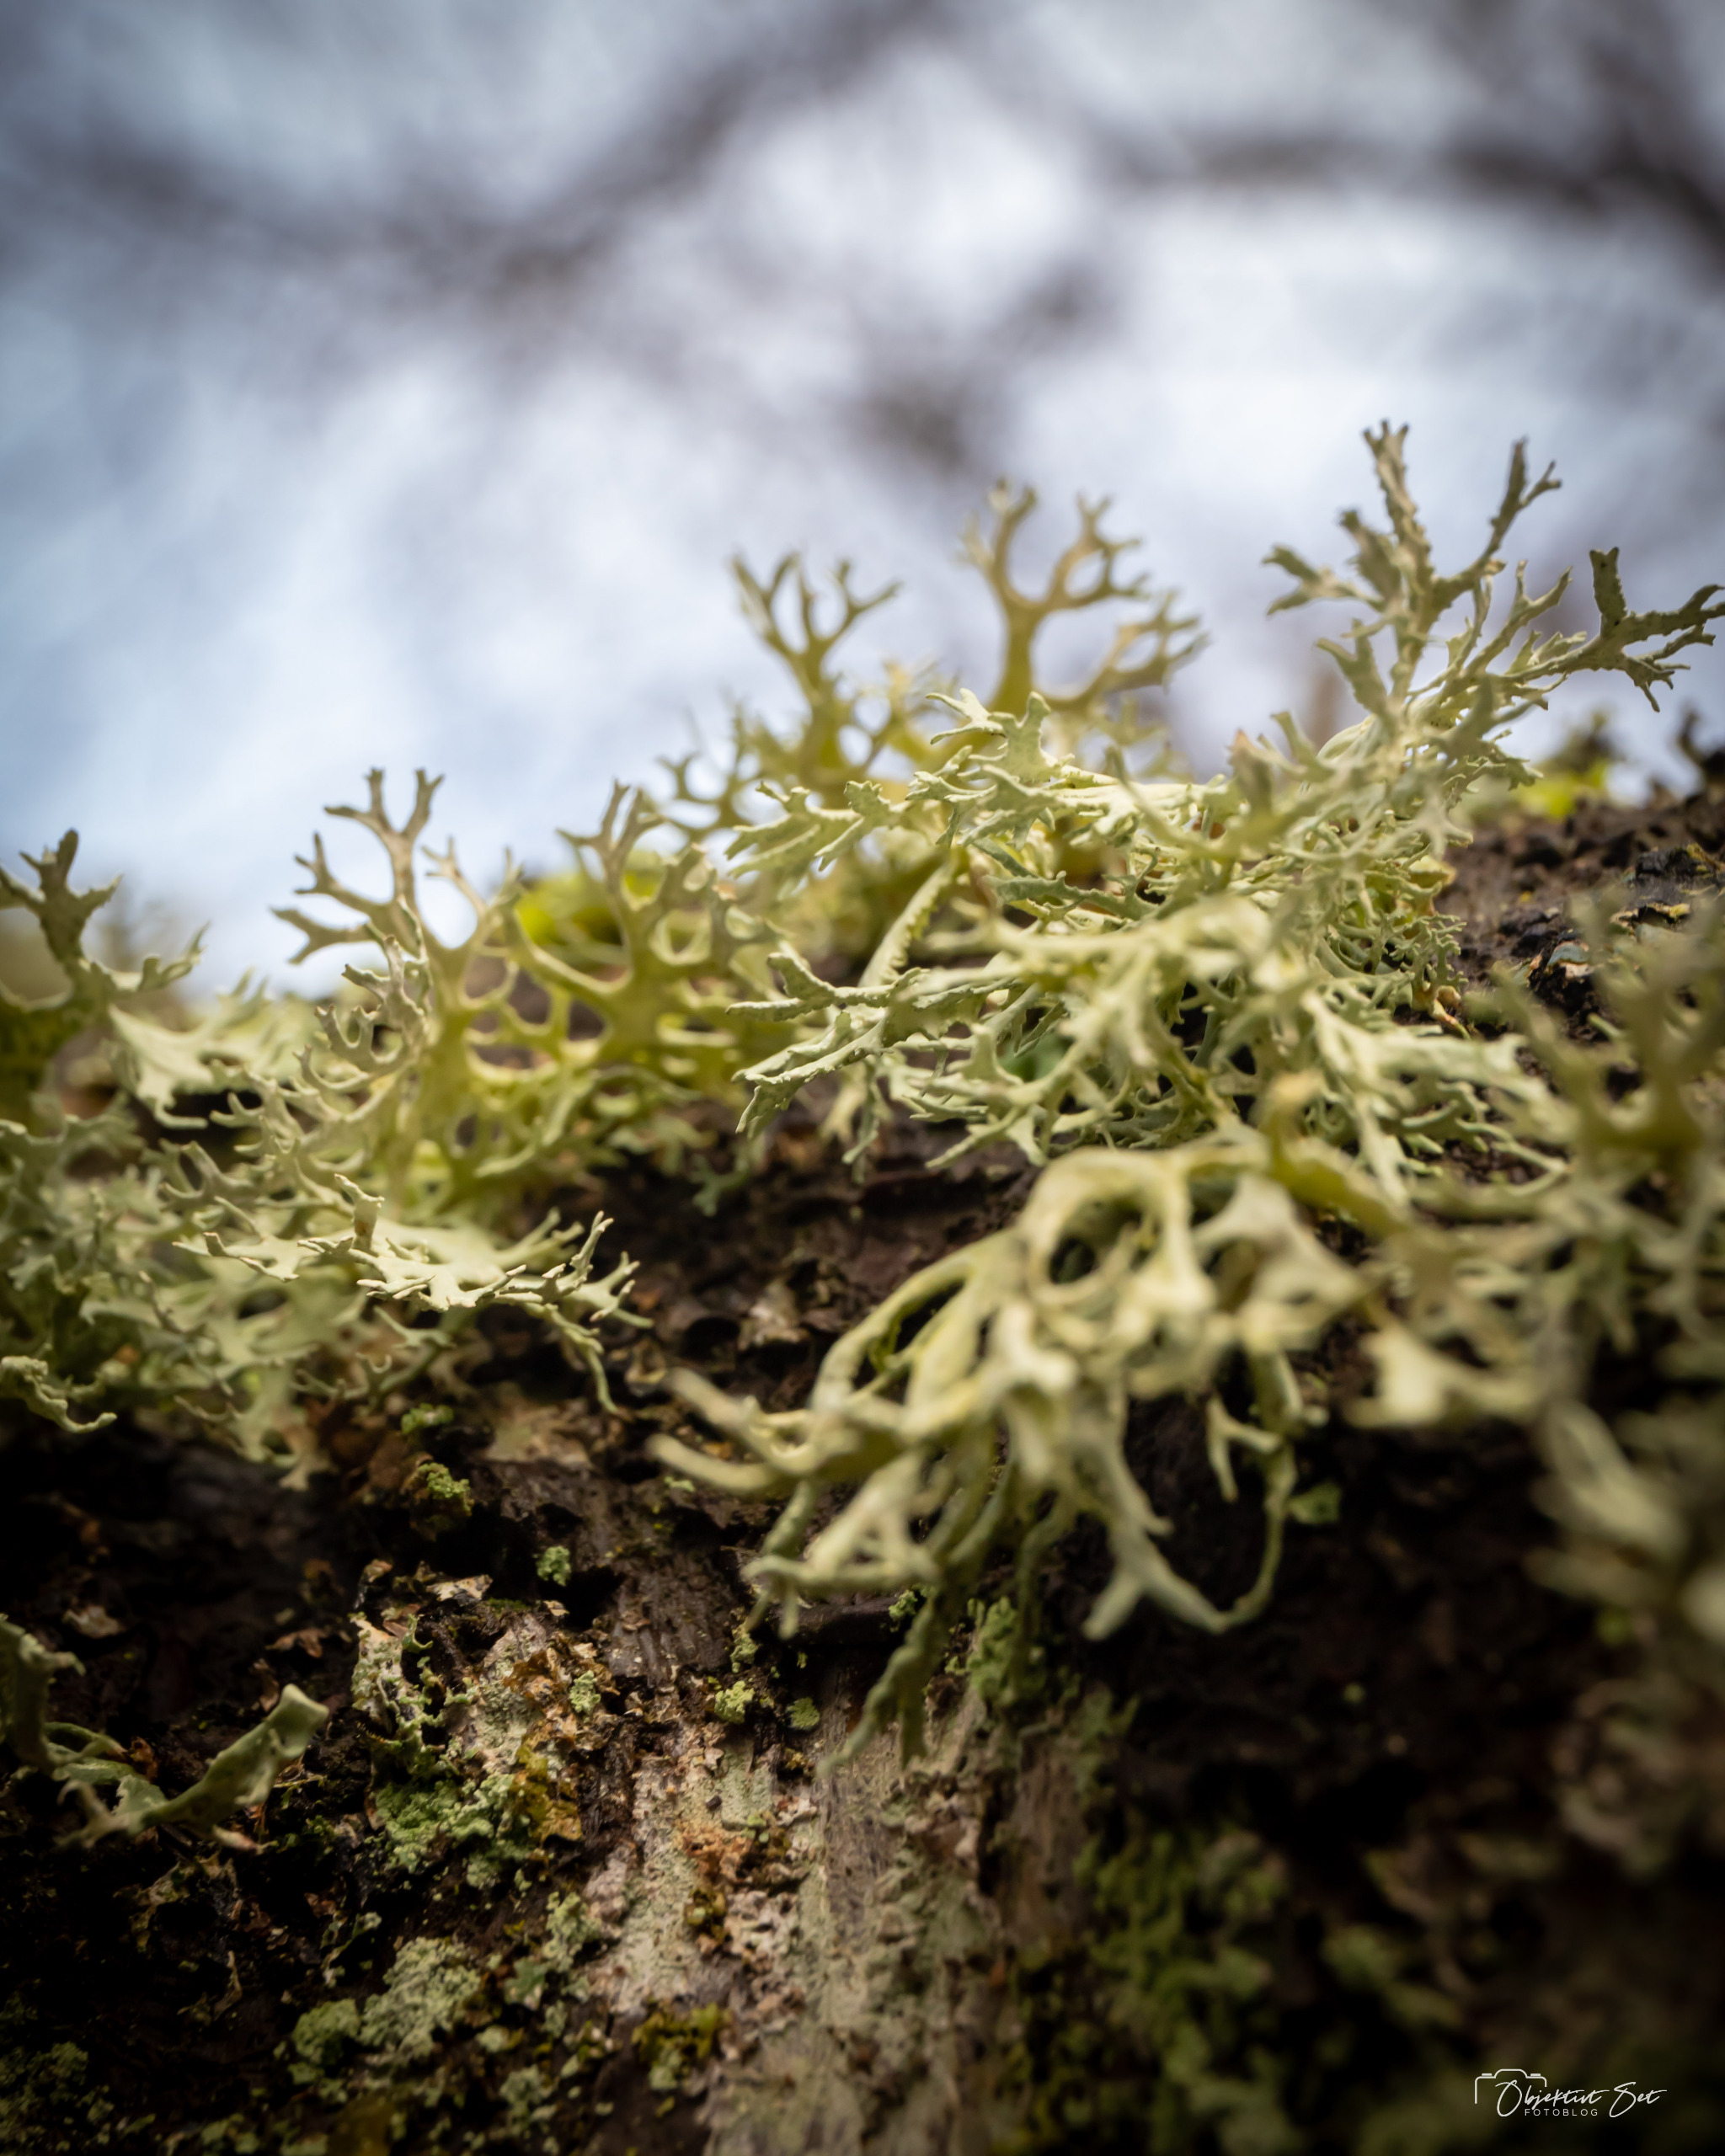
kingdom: Fungi
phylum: Ascomycota
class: Lecanoromycetes
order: Lecanorales
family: Parmeliaceae
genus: Evernia
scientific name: Evernia prunastri
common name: Almindelig slåenlav
